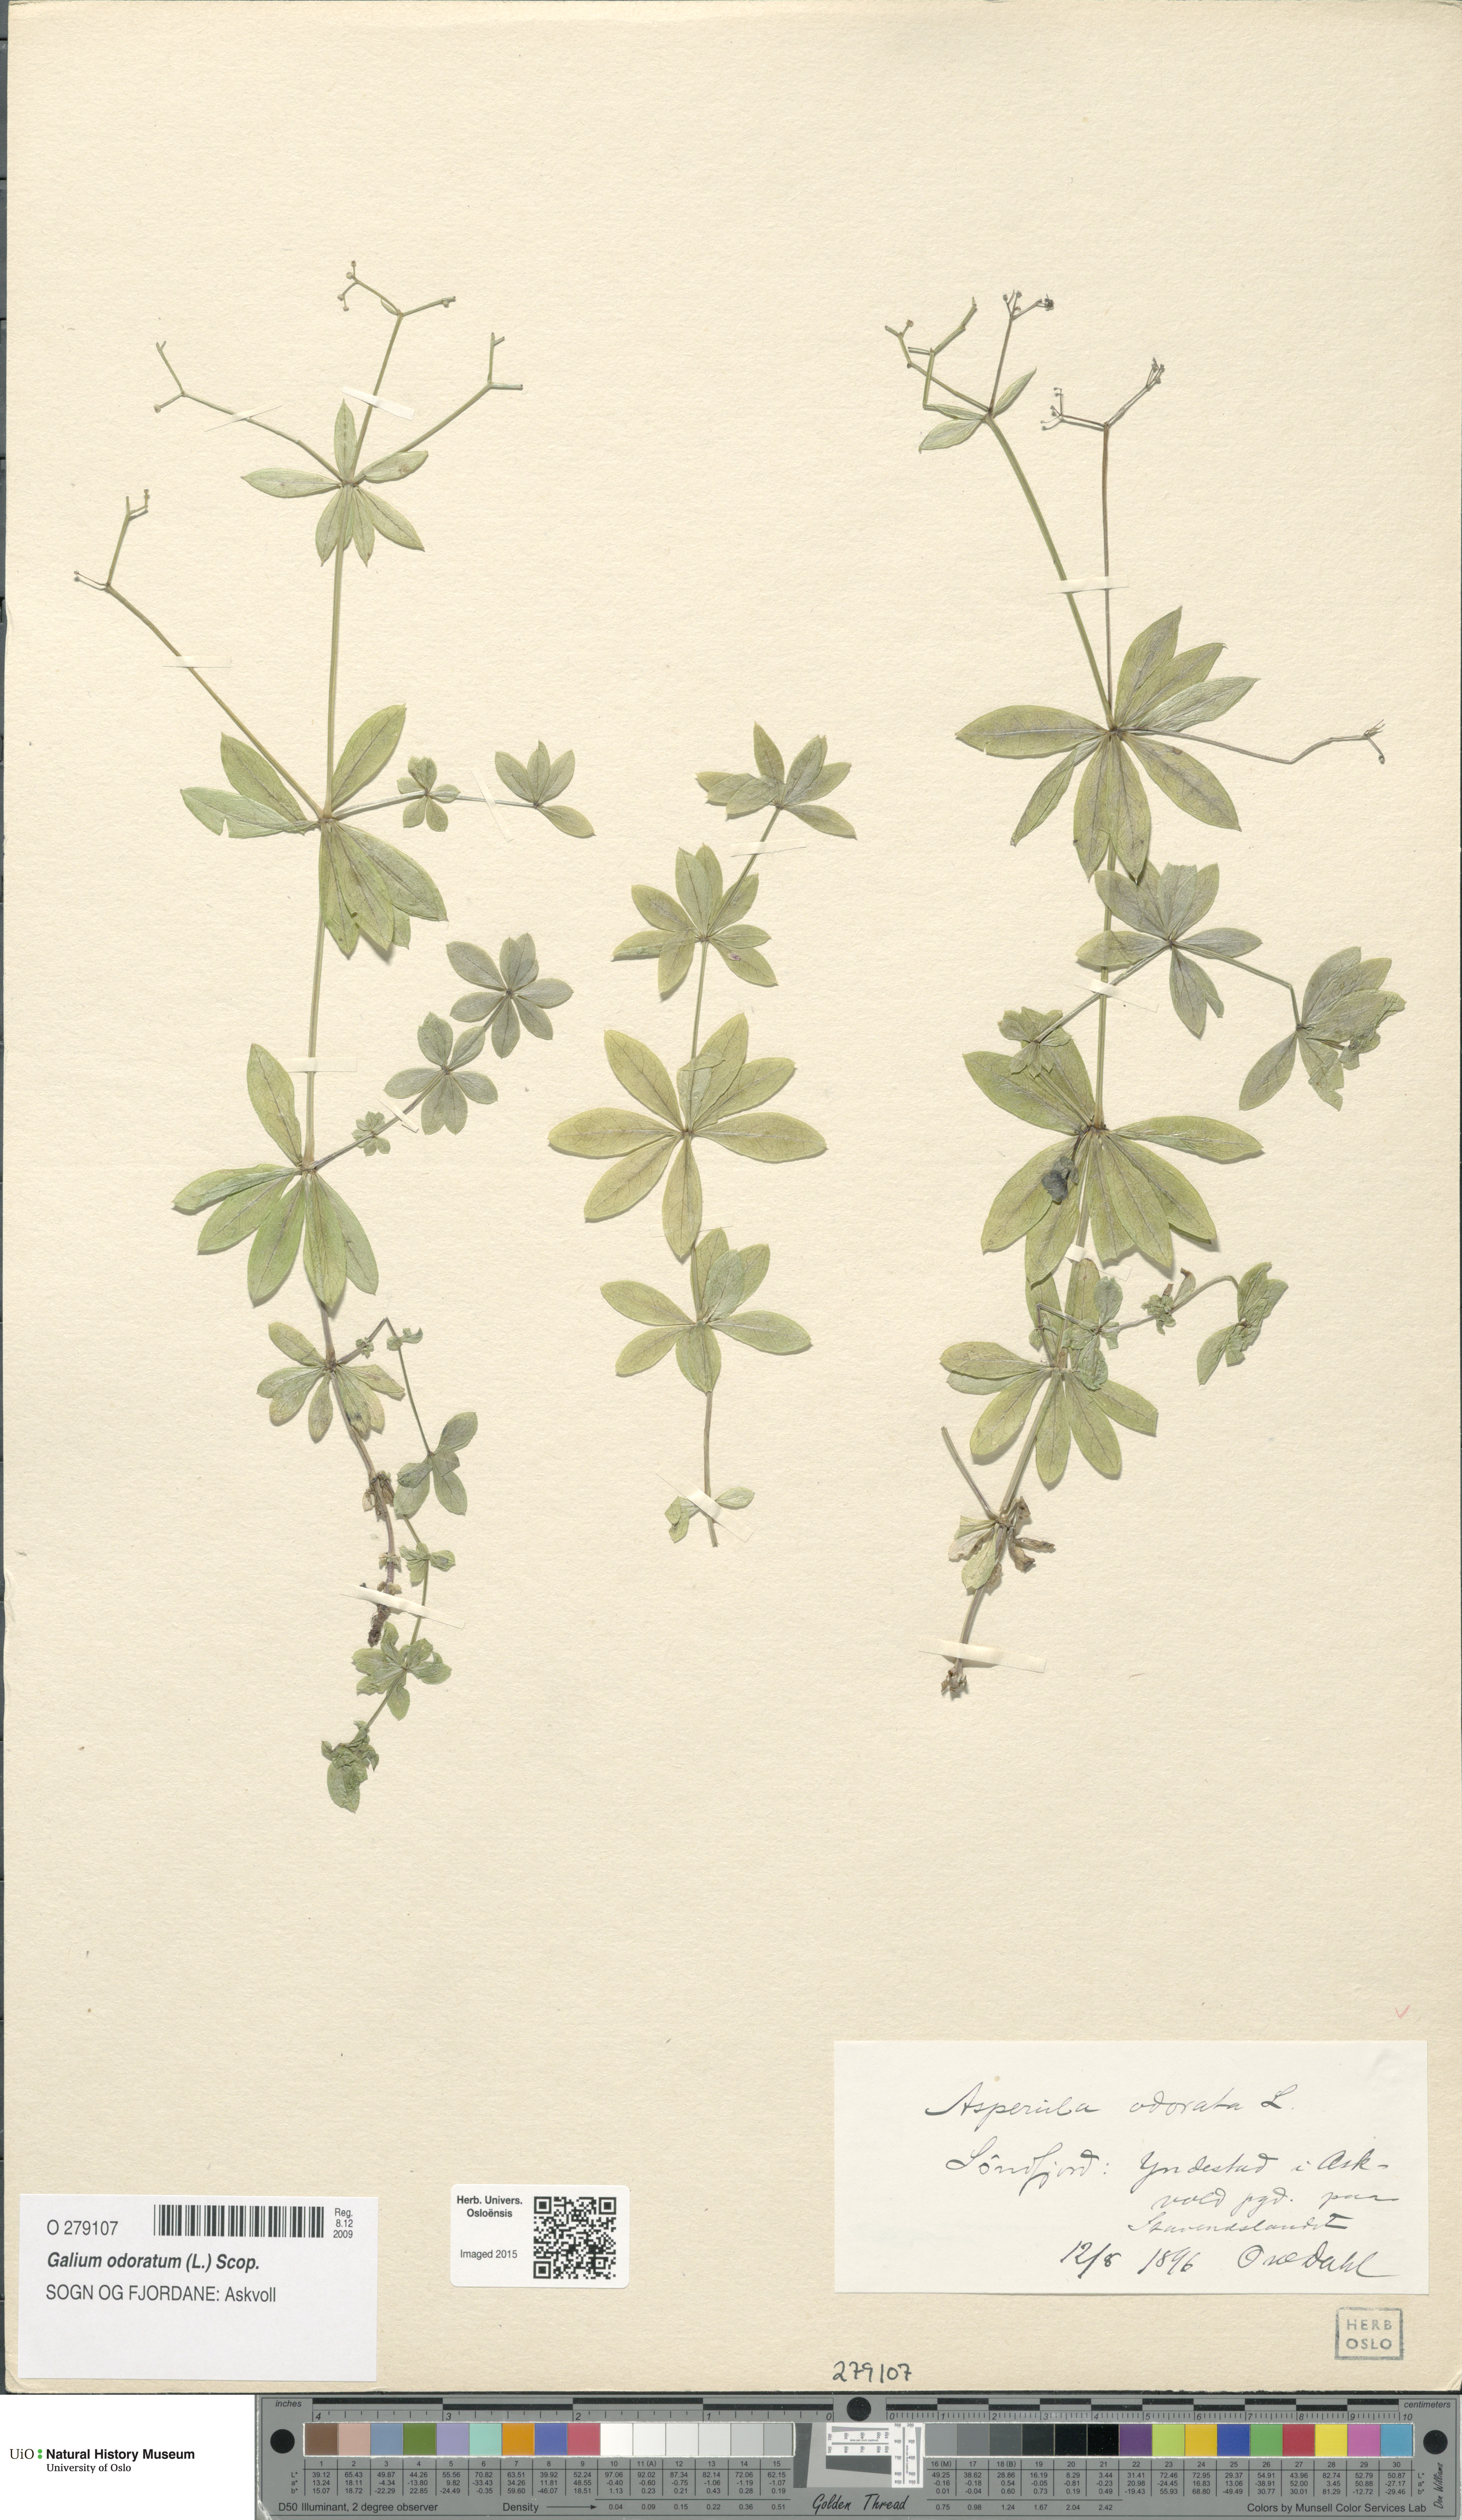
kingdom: Plantae
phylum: Tracheophyta
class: Magnoliopsida
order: Gentianales
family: Rubiaceae
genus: Galium
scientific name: Galium odoratum
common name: Sweet woodruff
